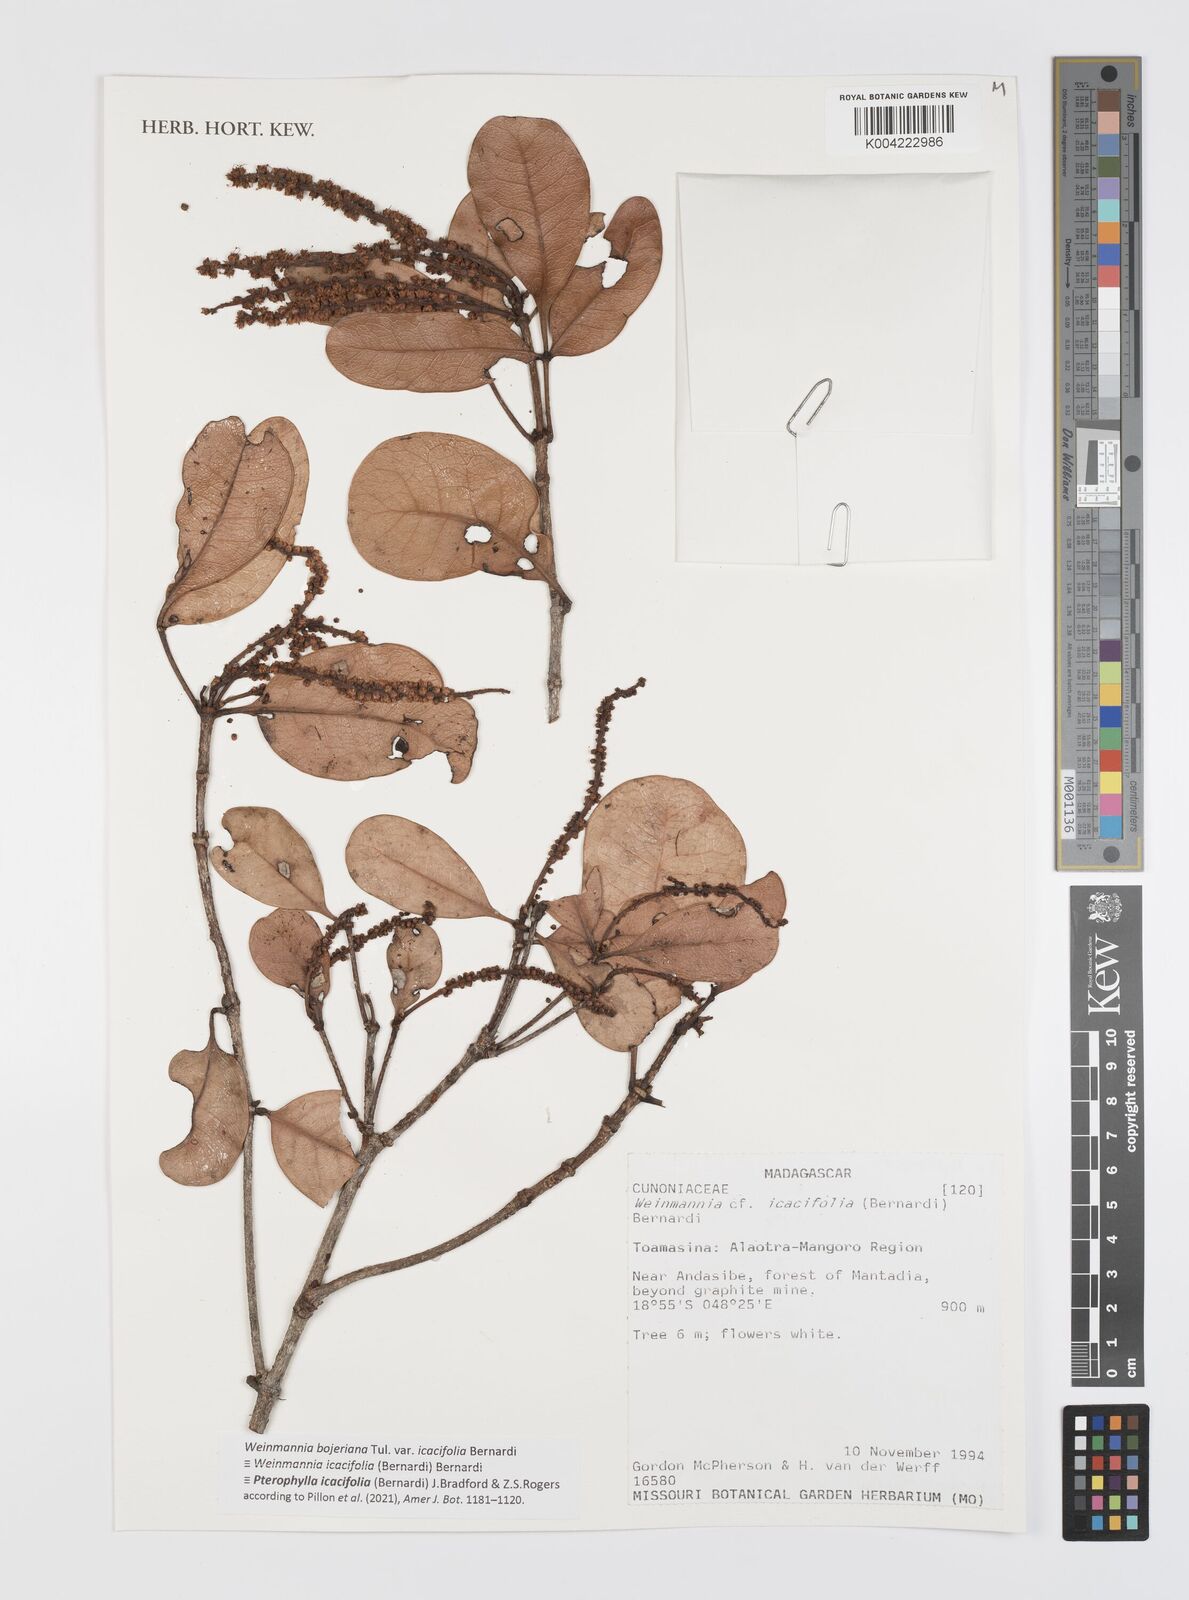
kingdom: Plantae
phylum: Tracheophyta
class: Magnoliopsida
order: Oxalidales
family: Cunoniaceae
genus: Pterophylla
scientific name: Pterophylla icacifolia
